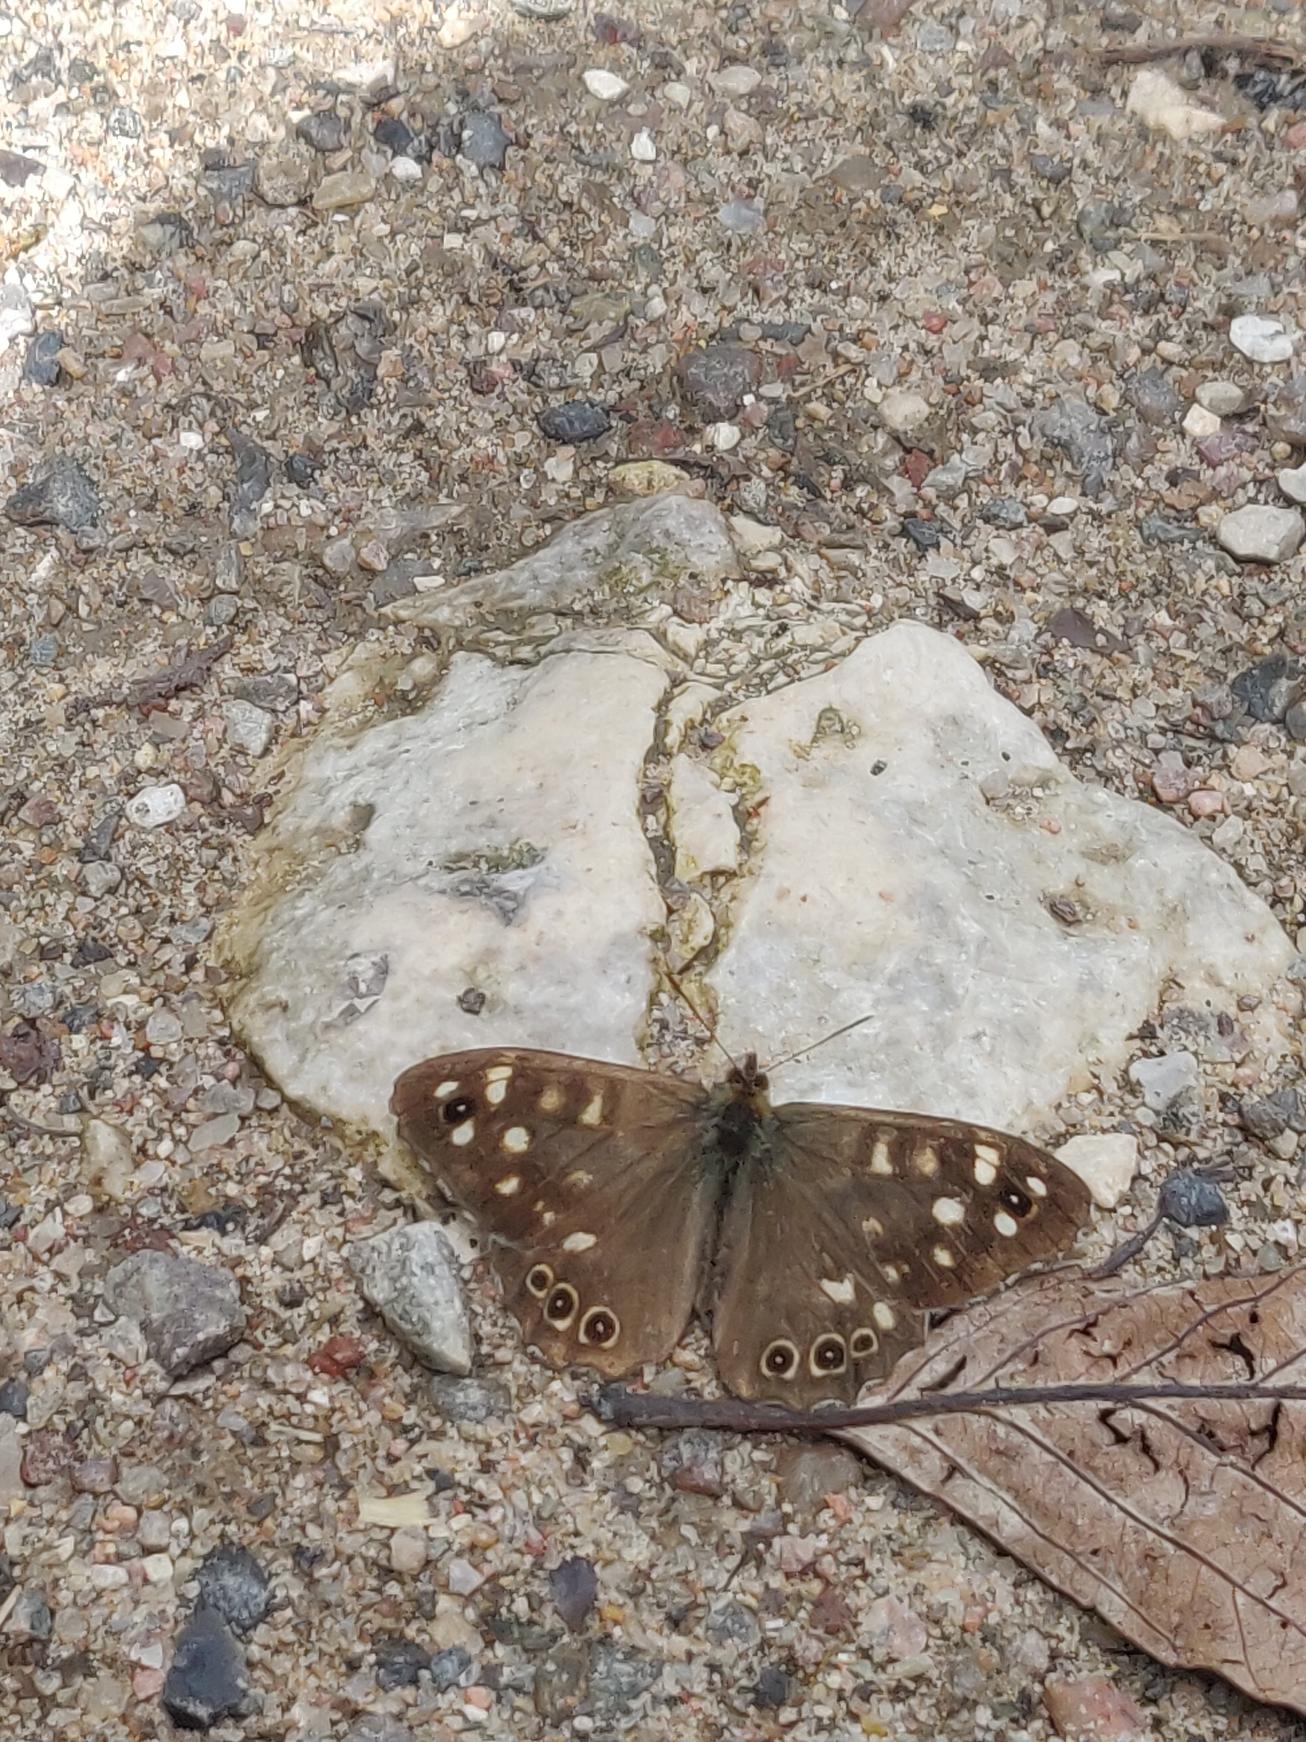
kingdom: Animalia
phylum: Arthropoda
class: Insecta
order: Lepidoptera
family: Nymphalidae
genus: Pararge
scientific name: Pararge aegeria
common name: Skovrandøje
